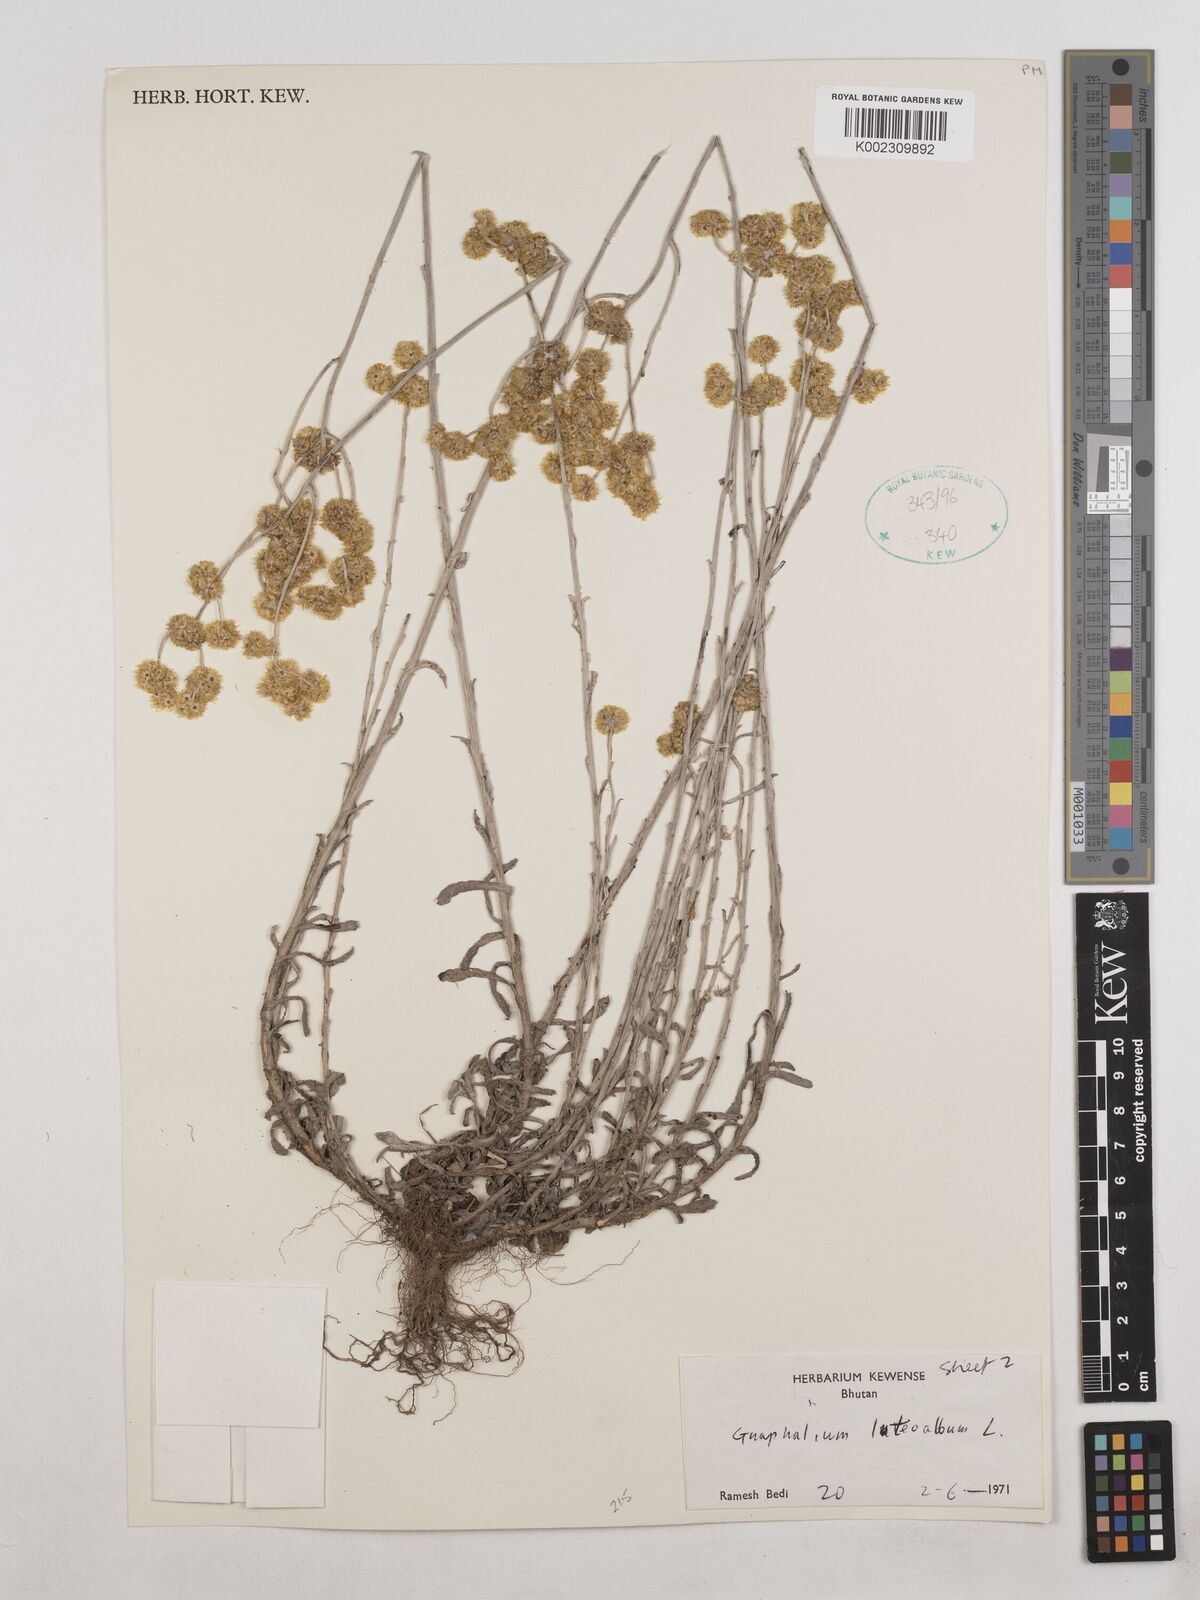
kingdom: Plantae
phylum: Tracheophyta
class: Magnoliopsida
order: Asterales
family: Asteraceae
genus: Pseudognaphalium
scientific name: Pseudognaphalium affine
